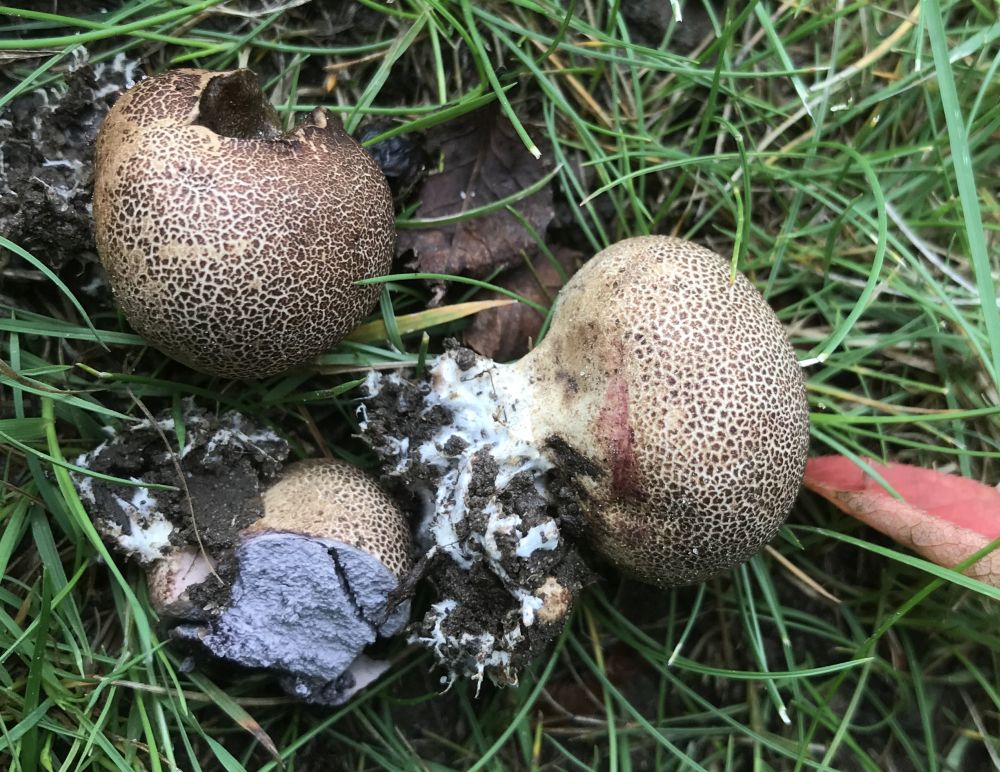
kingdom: Fungi
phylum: Basidiomycota
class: Agaricomycetes
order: Boletales
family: Sclerodermataceae
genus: Scleroderma
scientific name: Scleroderma areolatum
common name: plettet bruskbold
